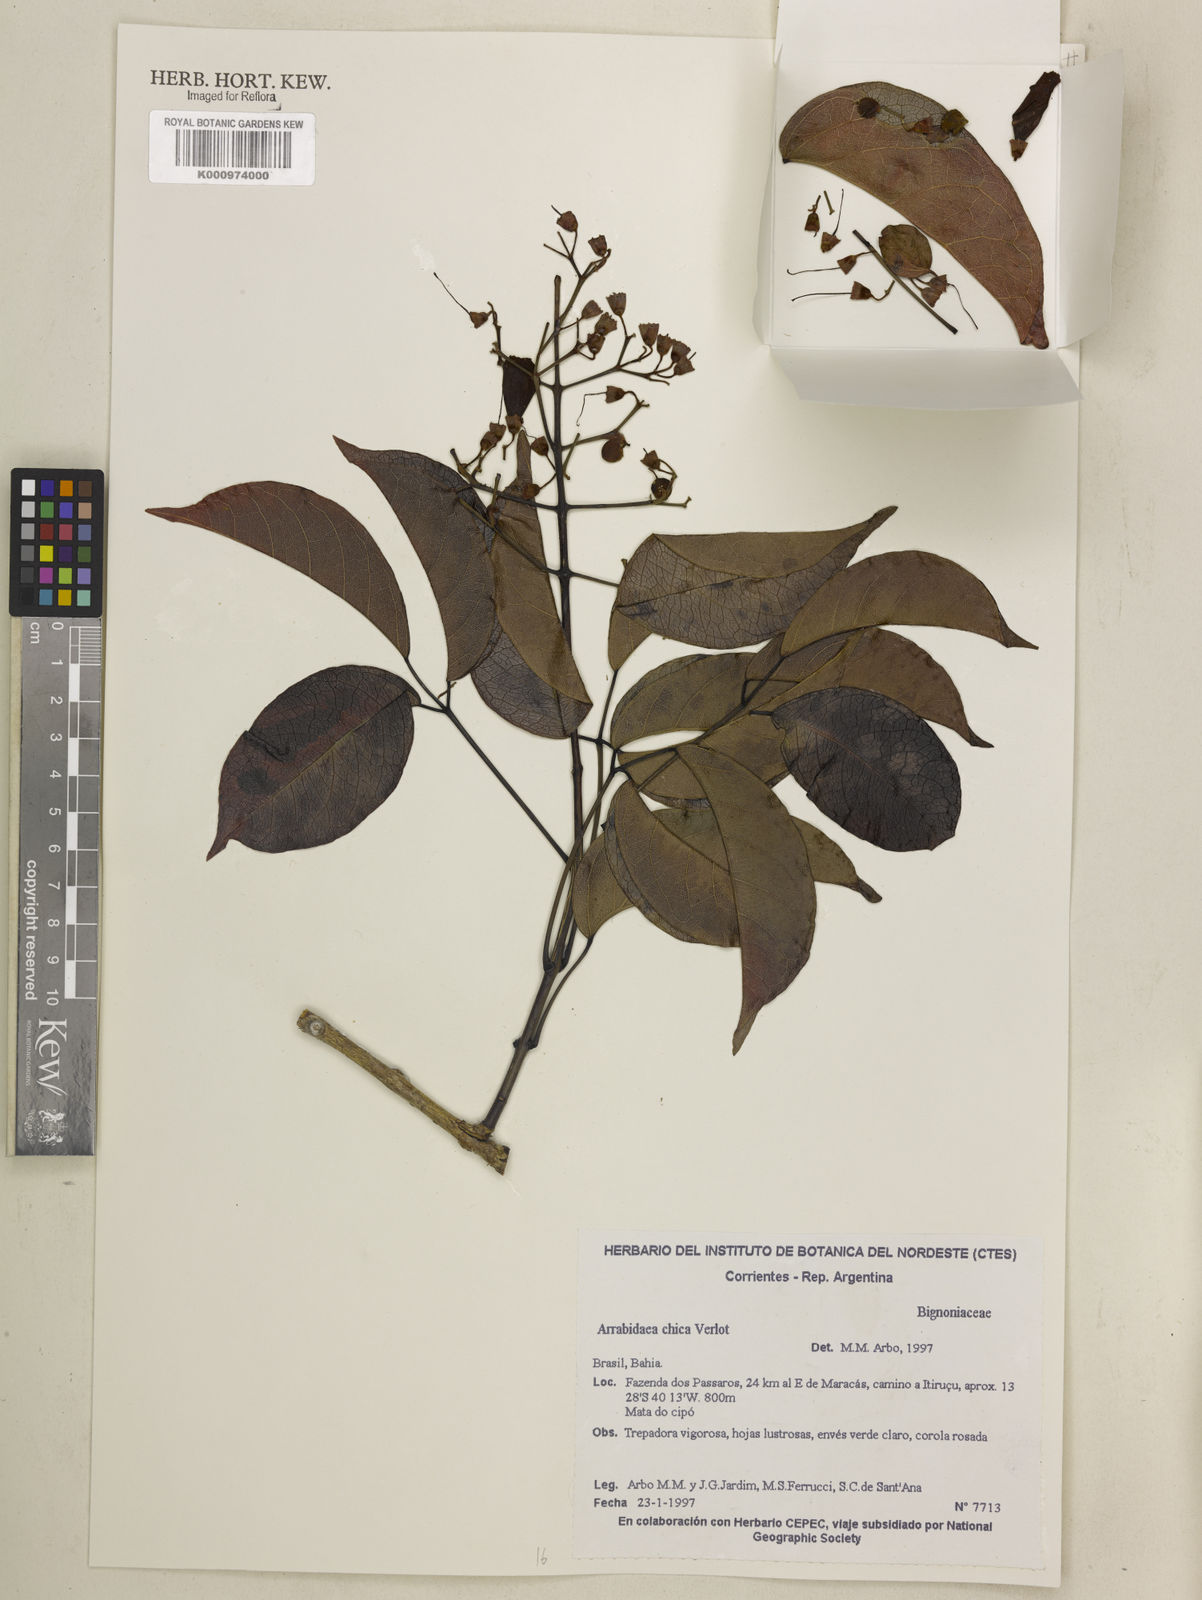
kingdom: Plantae
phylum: Tracheophyta
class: Magnoliopsida
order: Lamiales
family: Bignoniaceae
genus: Fridericia
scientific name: Fridericia chica
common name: Cricketvine
